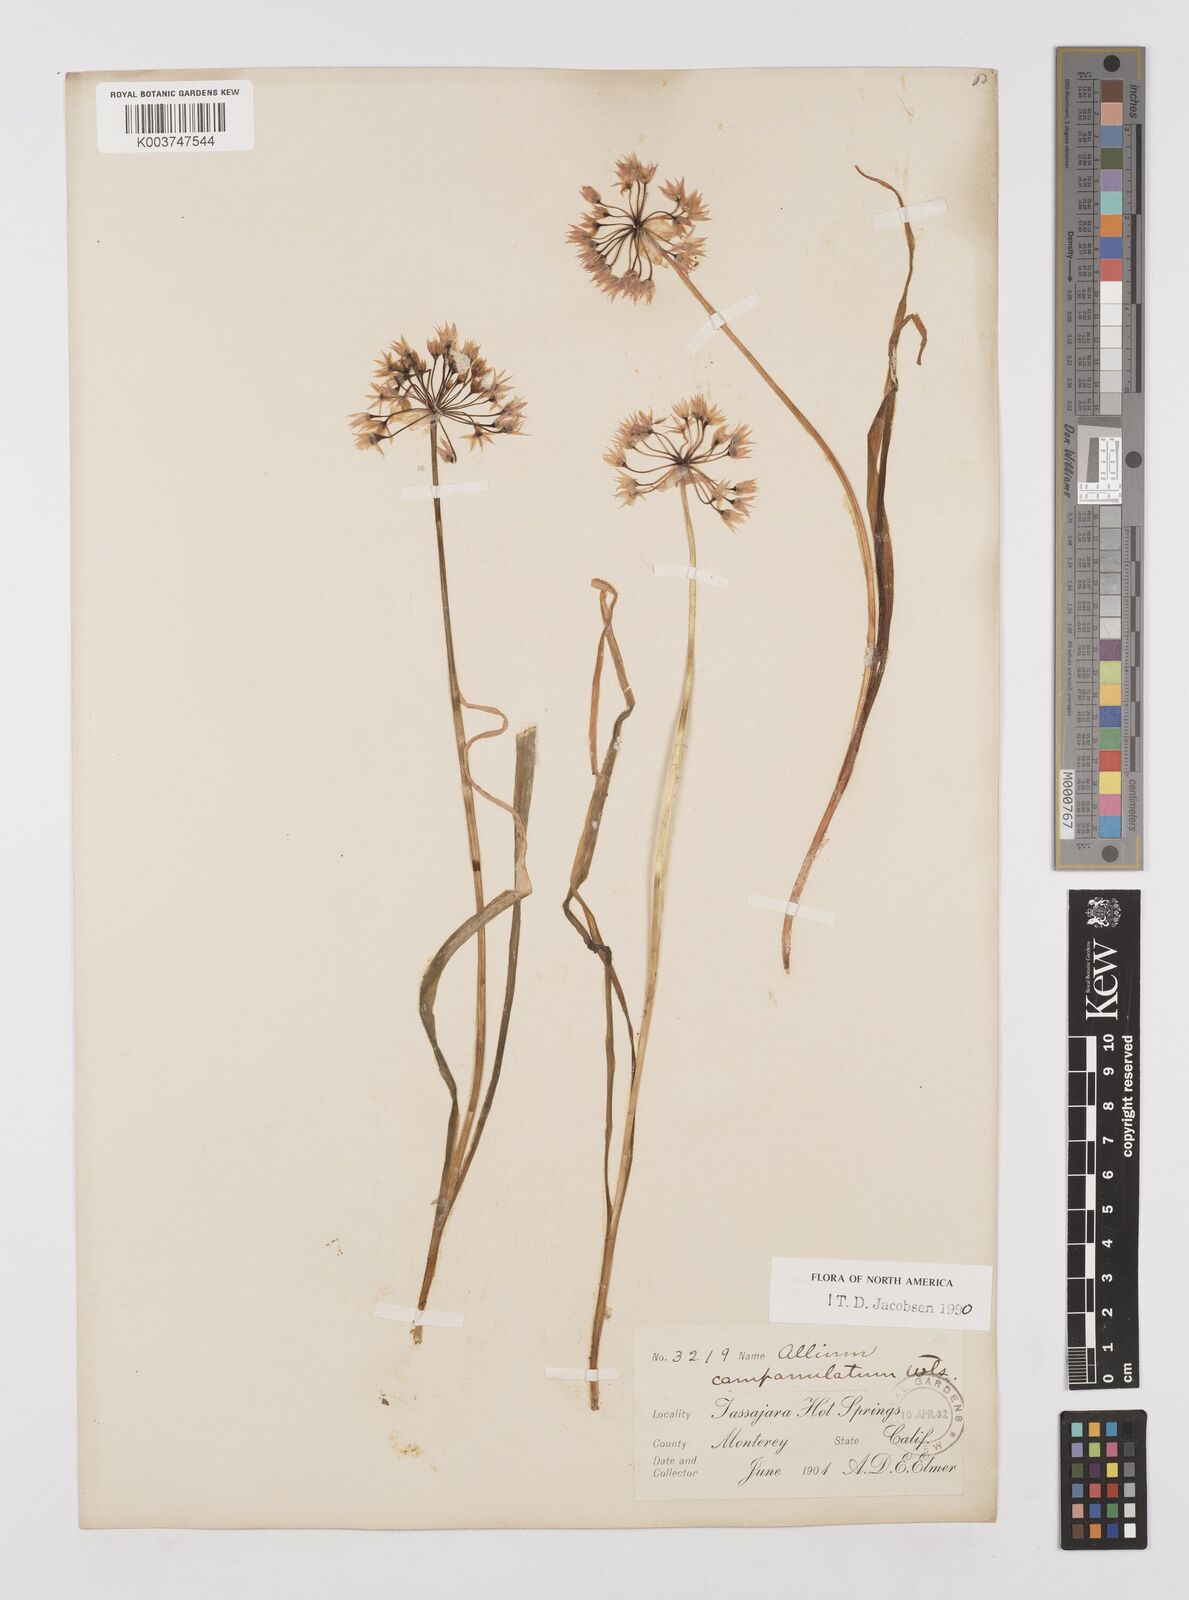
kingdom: Plantae
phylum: Tracheophyta
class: Liliopsida
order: Asparagales
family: Amaryllidaceae
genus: Allium
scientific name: Allium campanulatum
